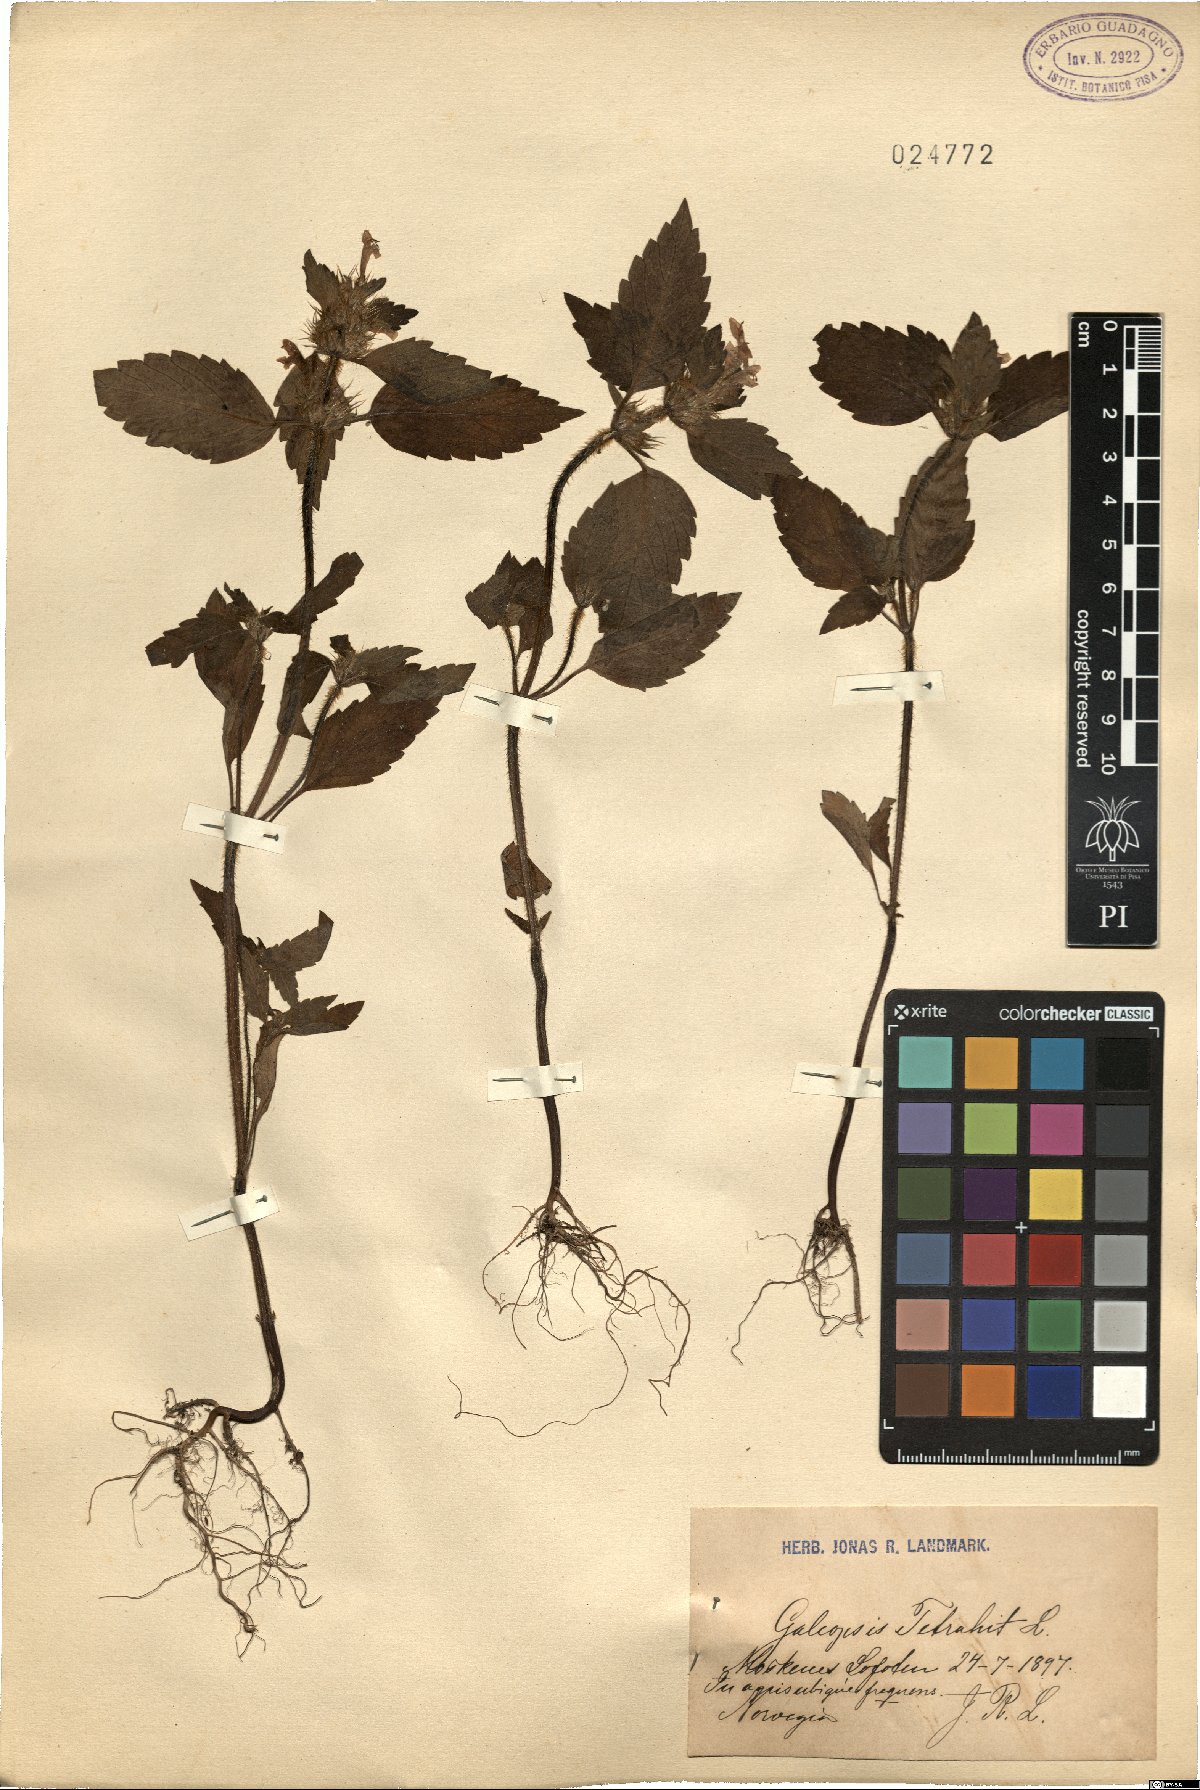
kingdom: Plantae
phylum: Tracheophyta
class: Magnoliopsida
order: Lamiales
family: Lamiaceae
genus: Galeopsis
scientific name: Galeopsis tetrahit
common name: Common hemp-nettle
